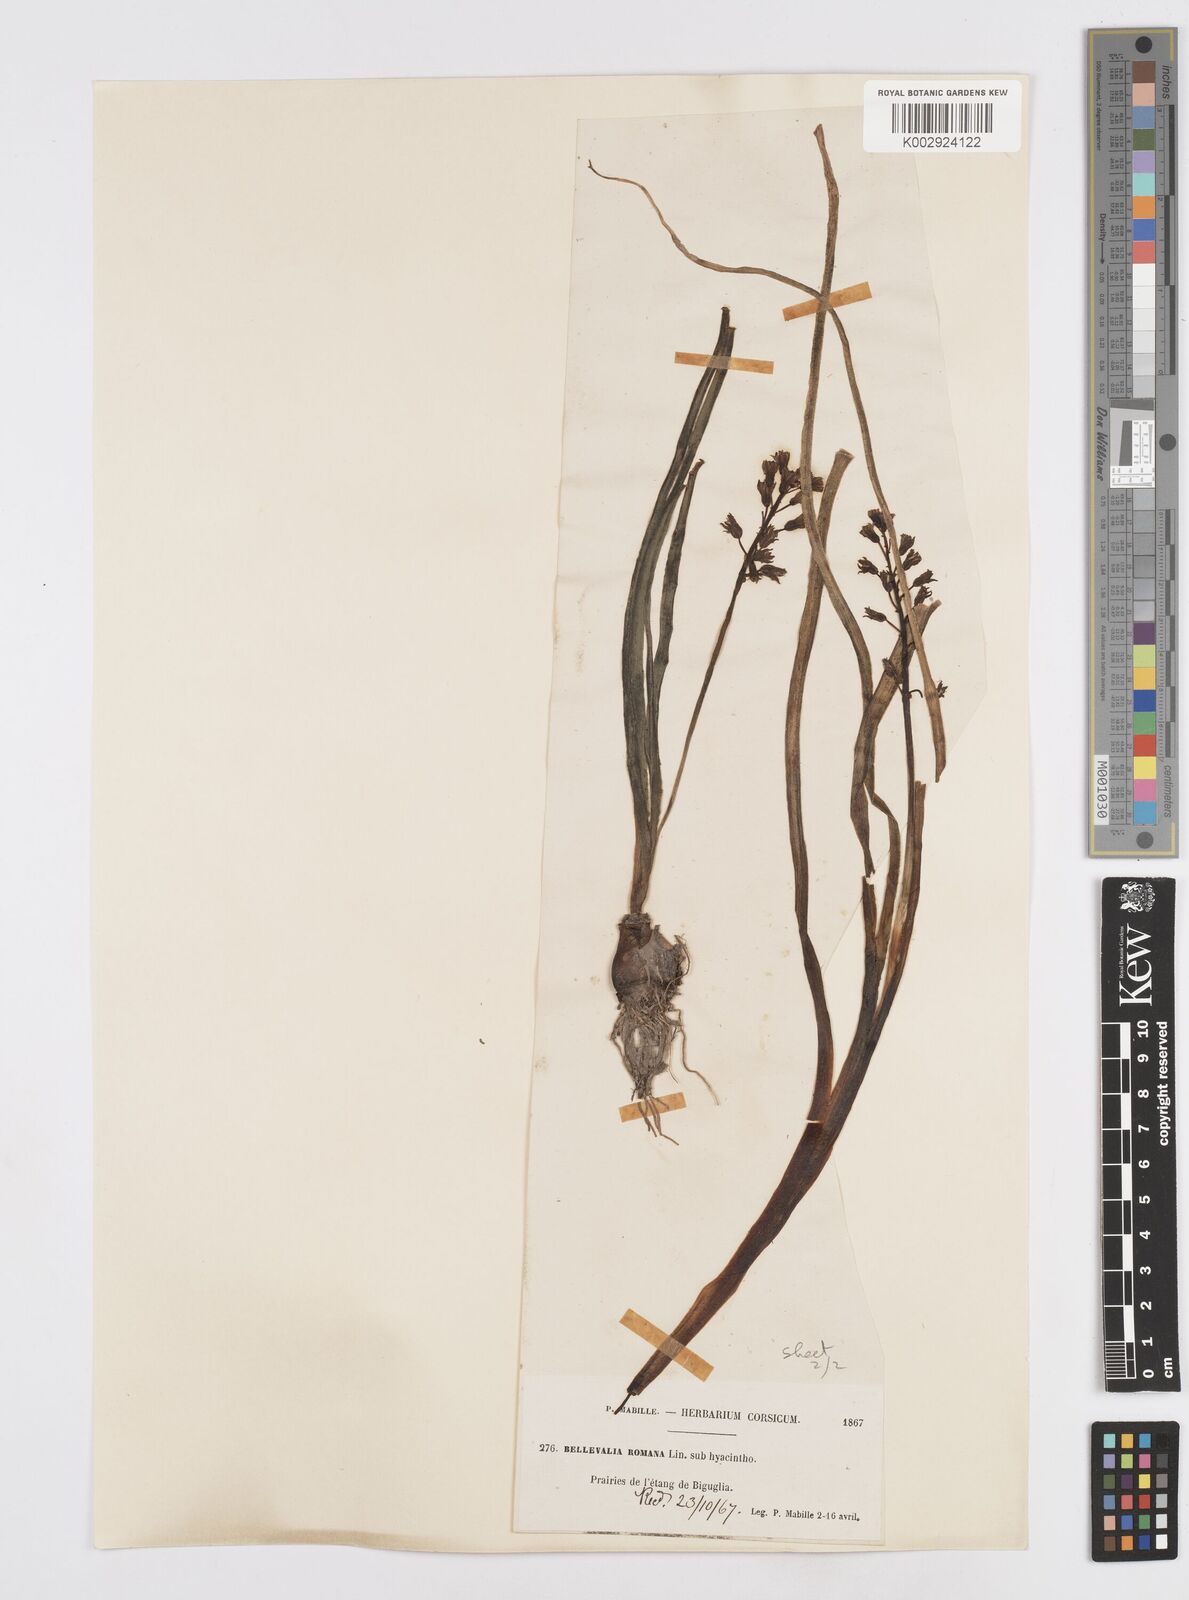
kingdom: Plantae
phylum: Tracheophyta
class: Liliopsida
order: Asparagales
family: Asparagaceae
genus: Bellevalia
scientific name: Bellevalia
